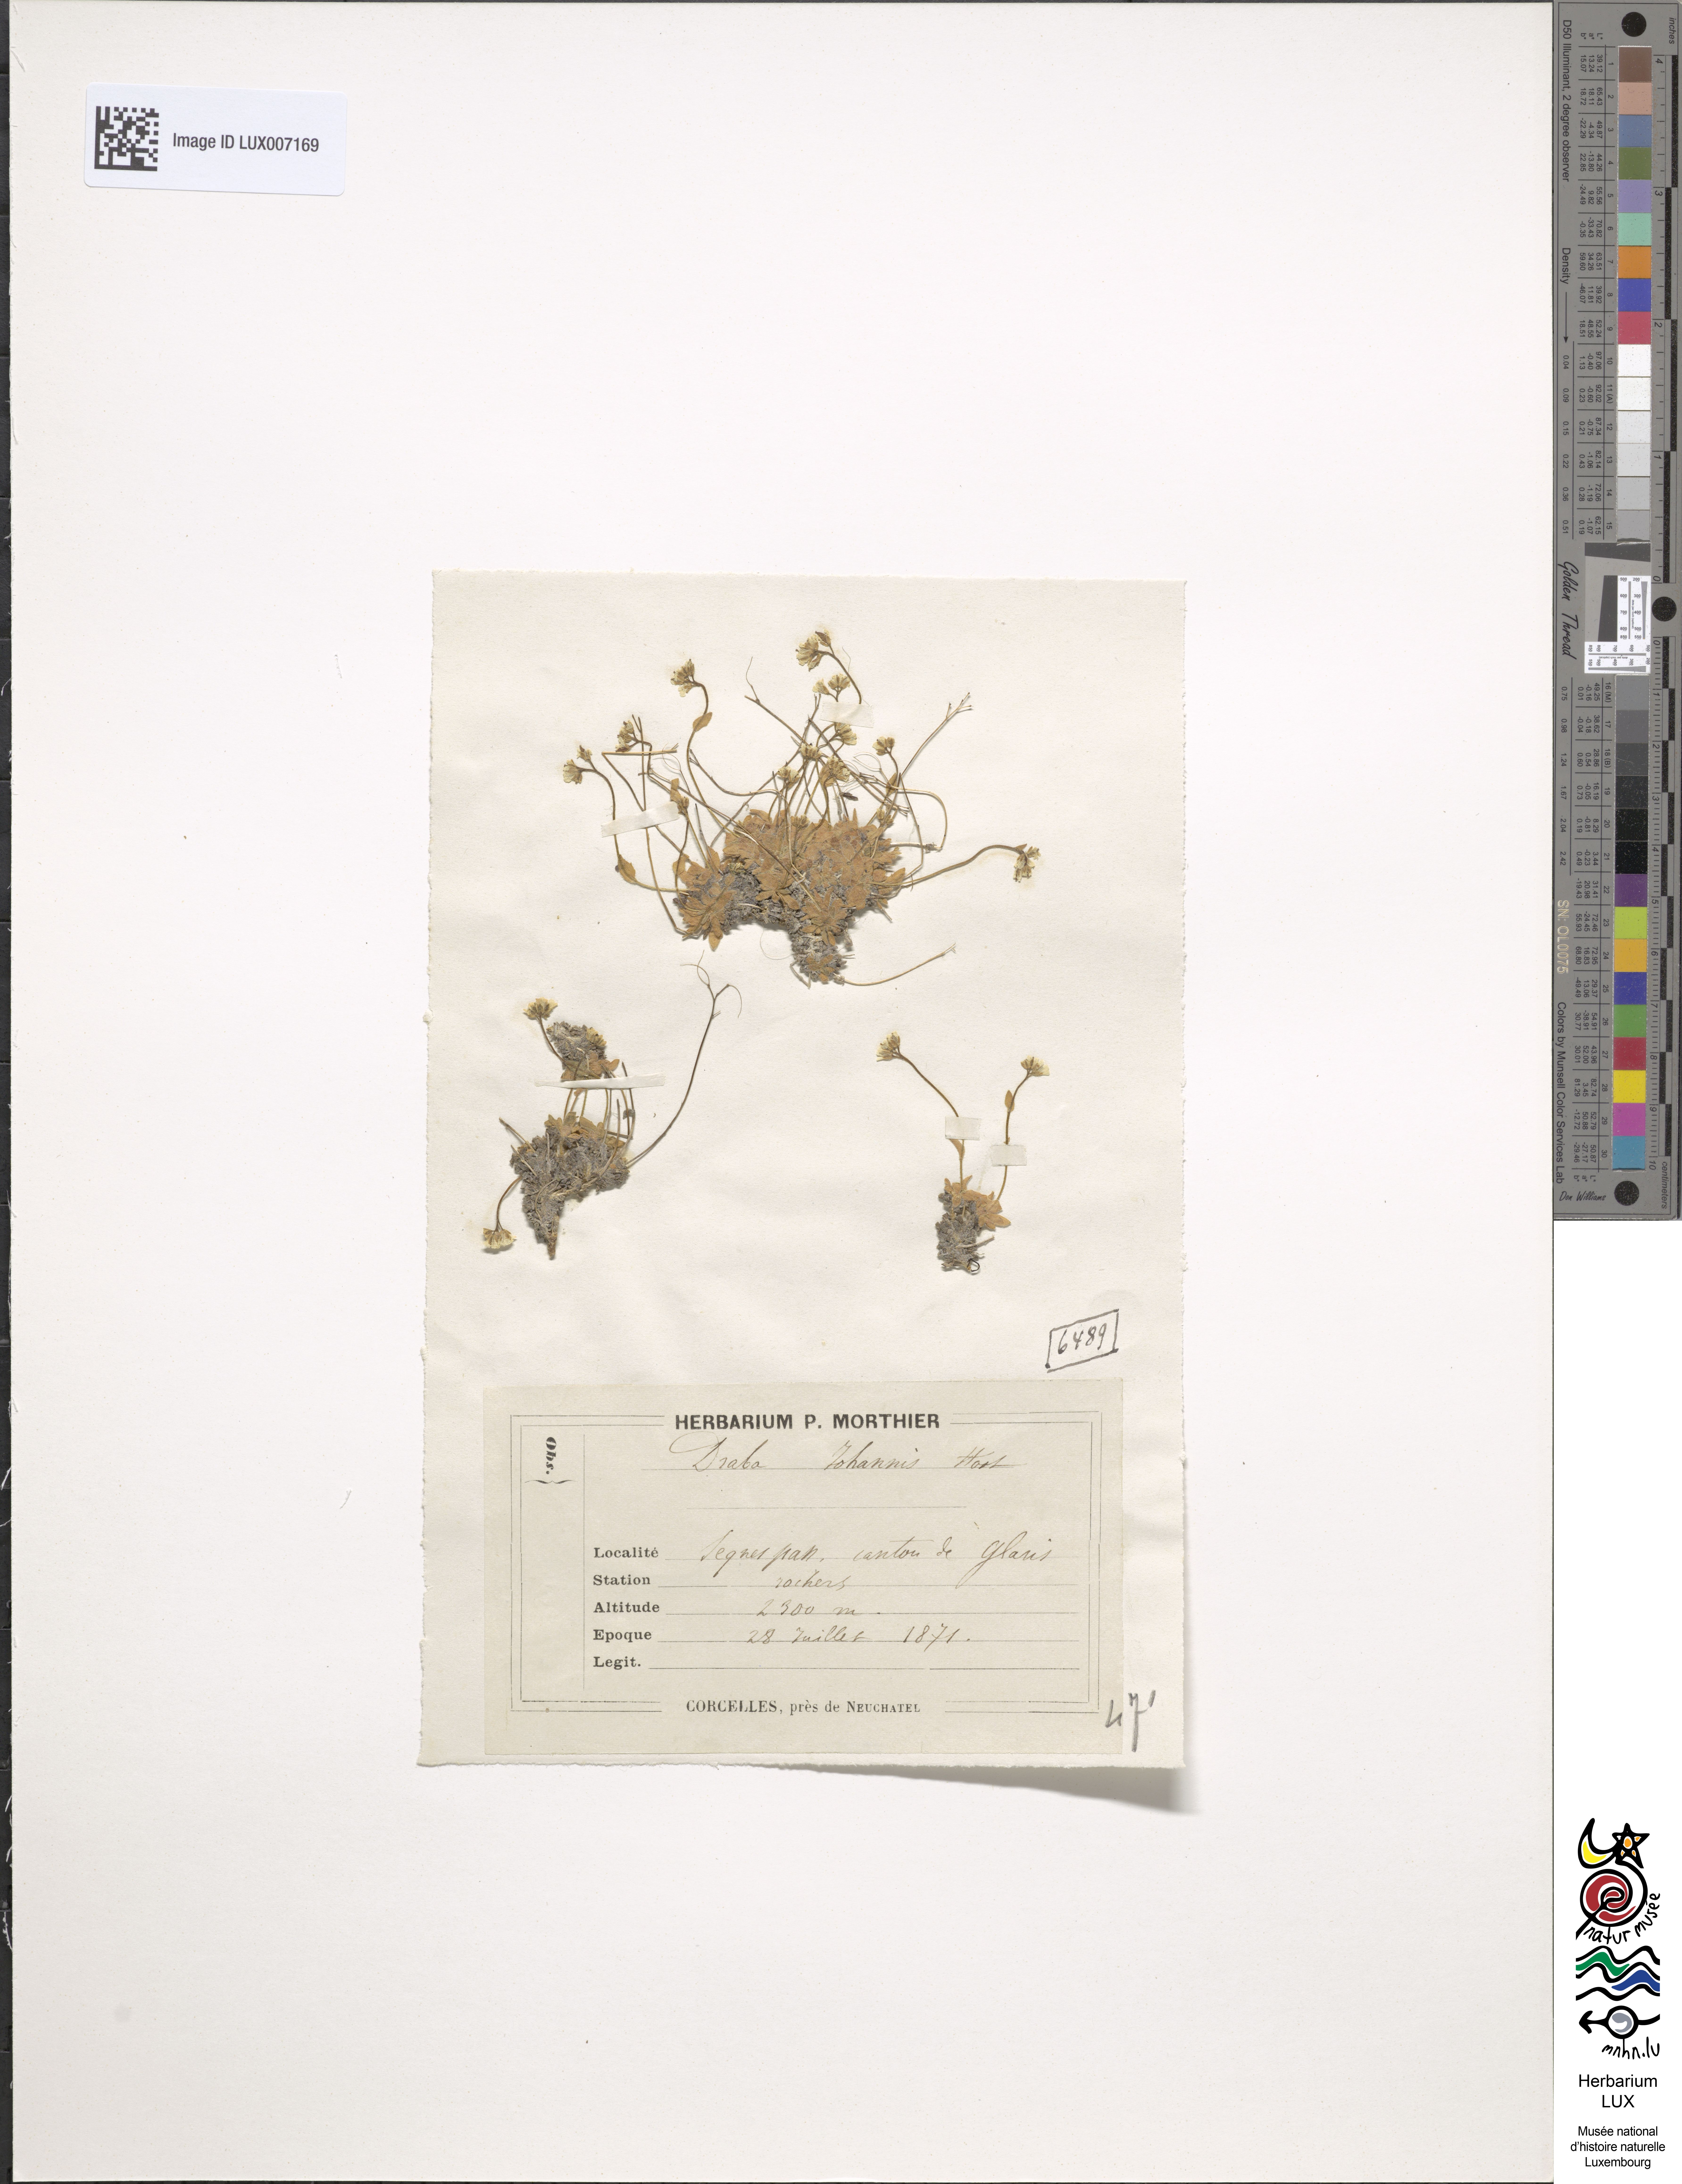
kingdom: Plantae
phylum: Tracheophyta
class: Magnoliopsida
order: Brassicales
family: Brassicaceae
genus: Draba
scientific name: Draba siliquosa
